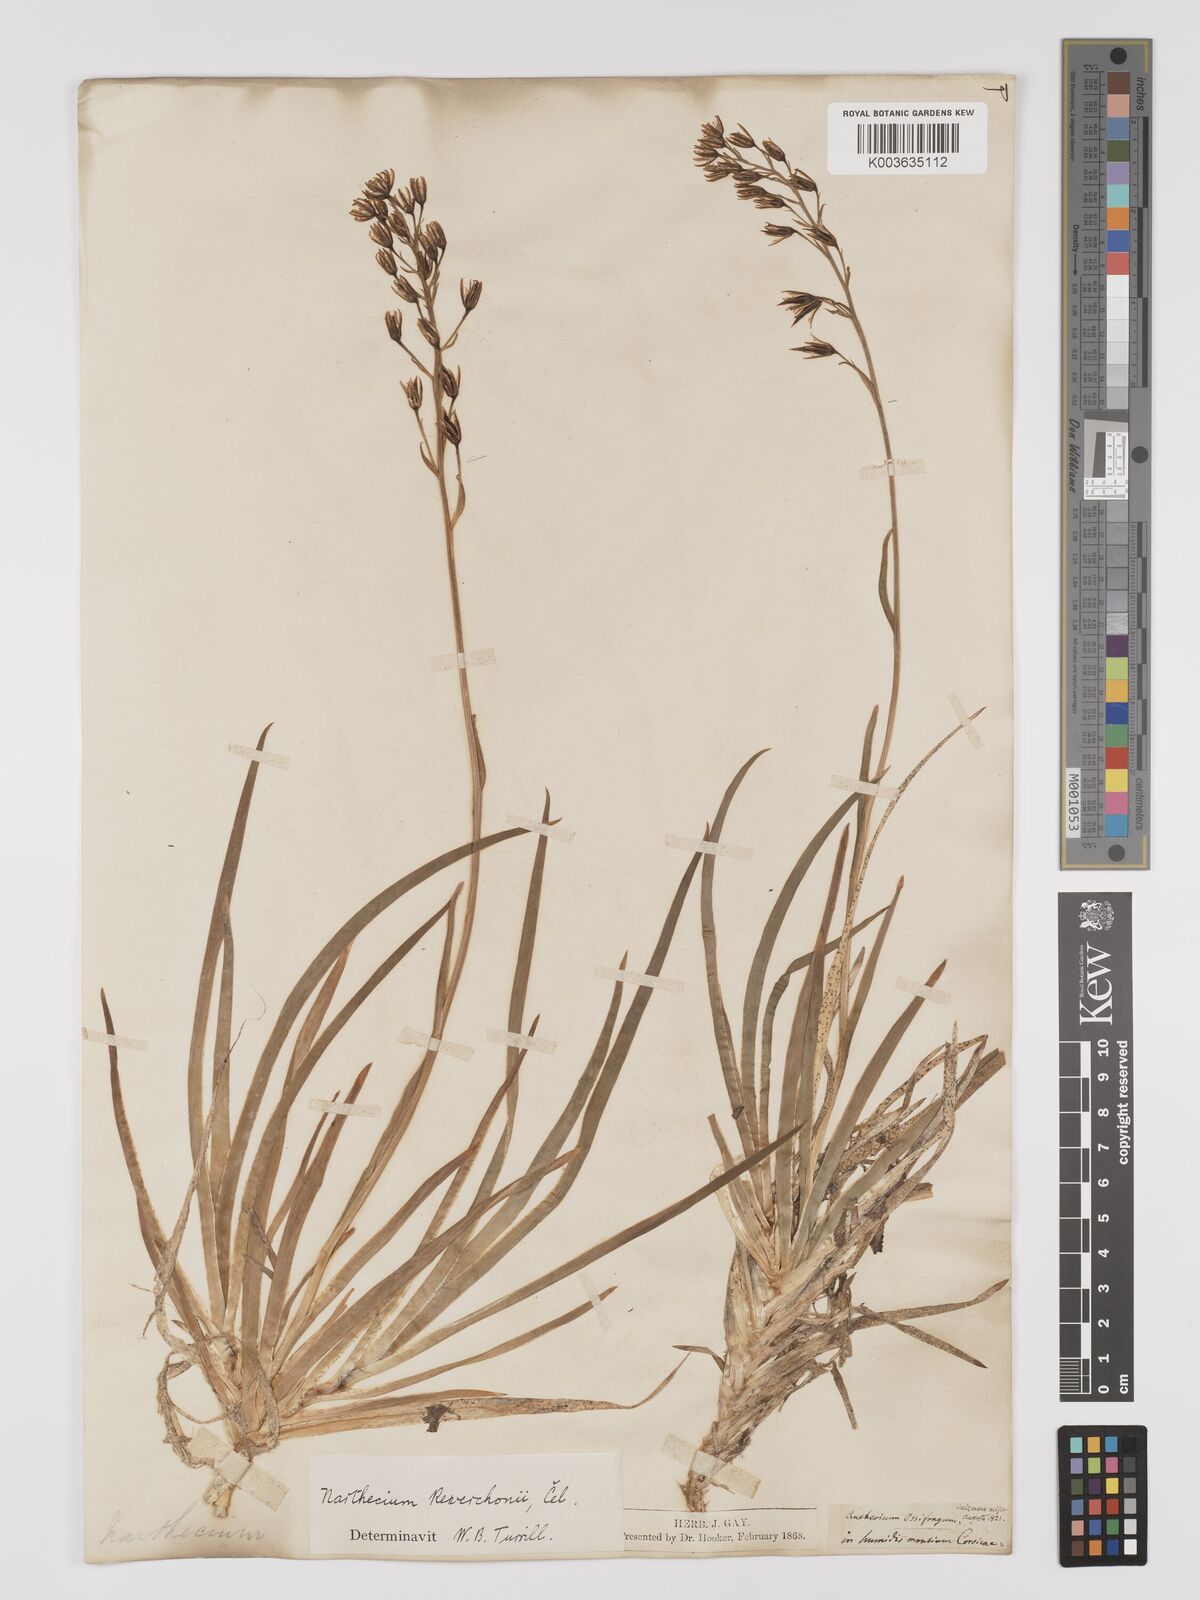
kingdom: Plantae
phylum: Tracheophyta
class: Liliopsida
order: Dioscoreales
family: Nartheciaceae
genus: Narthecium
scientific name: Narthecium reverchonii
